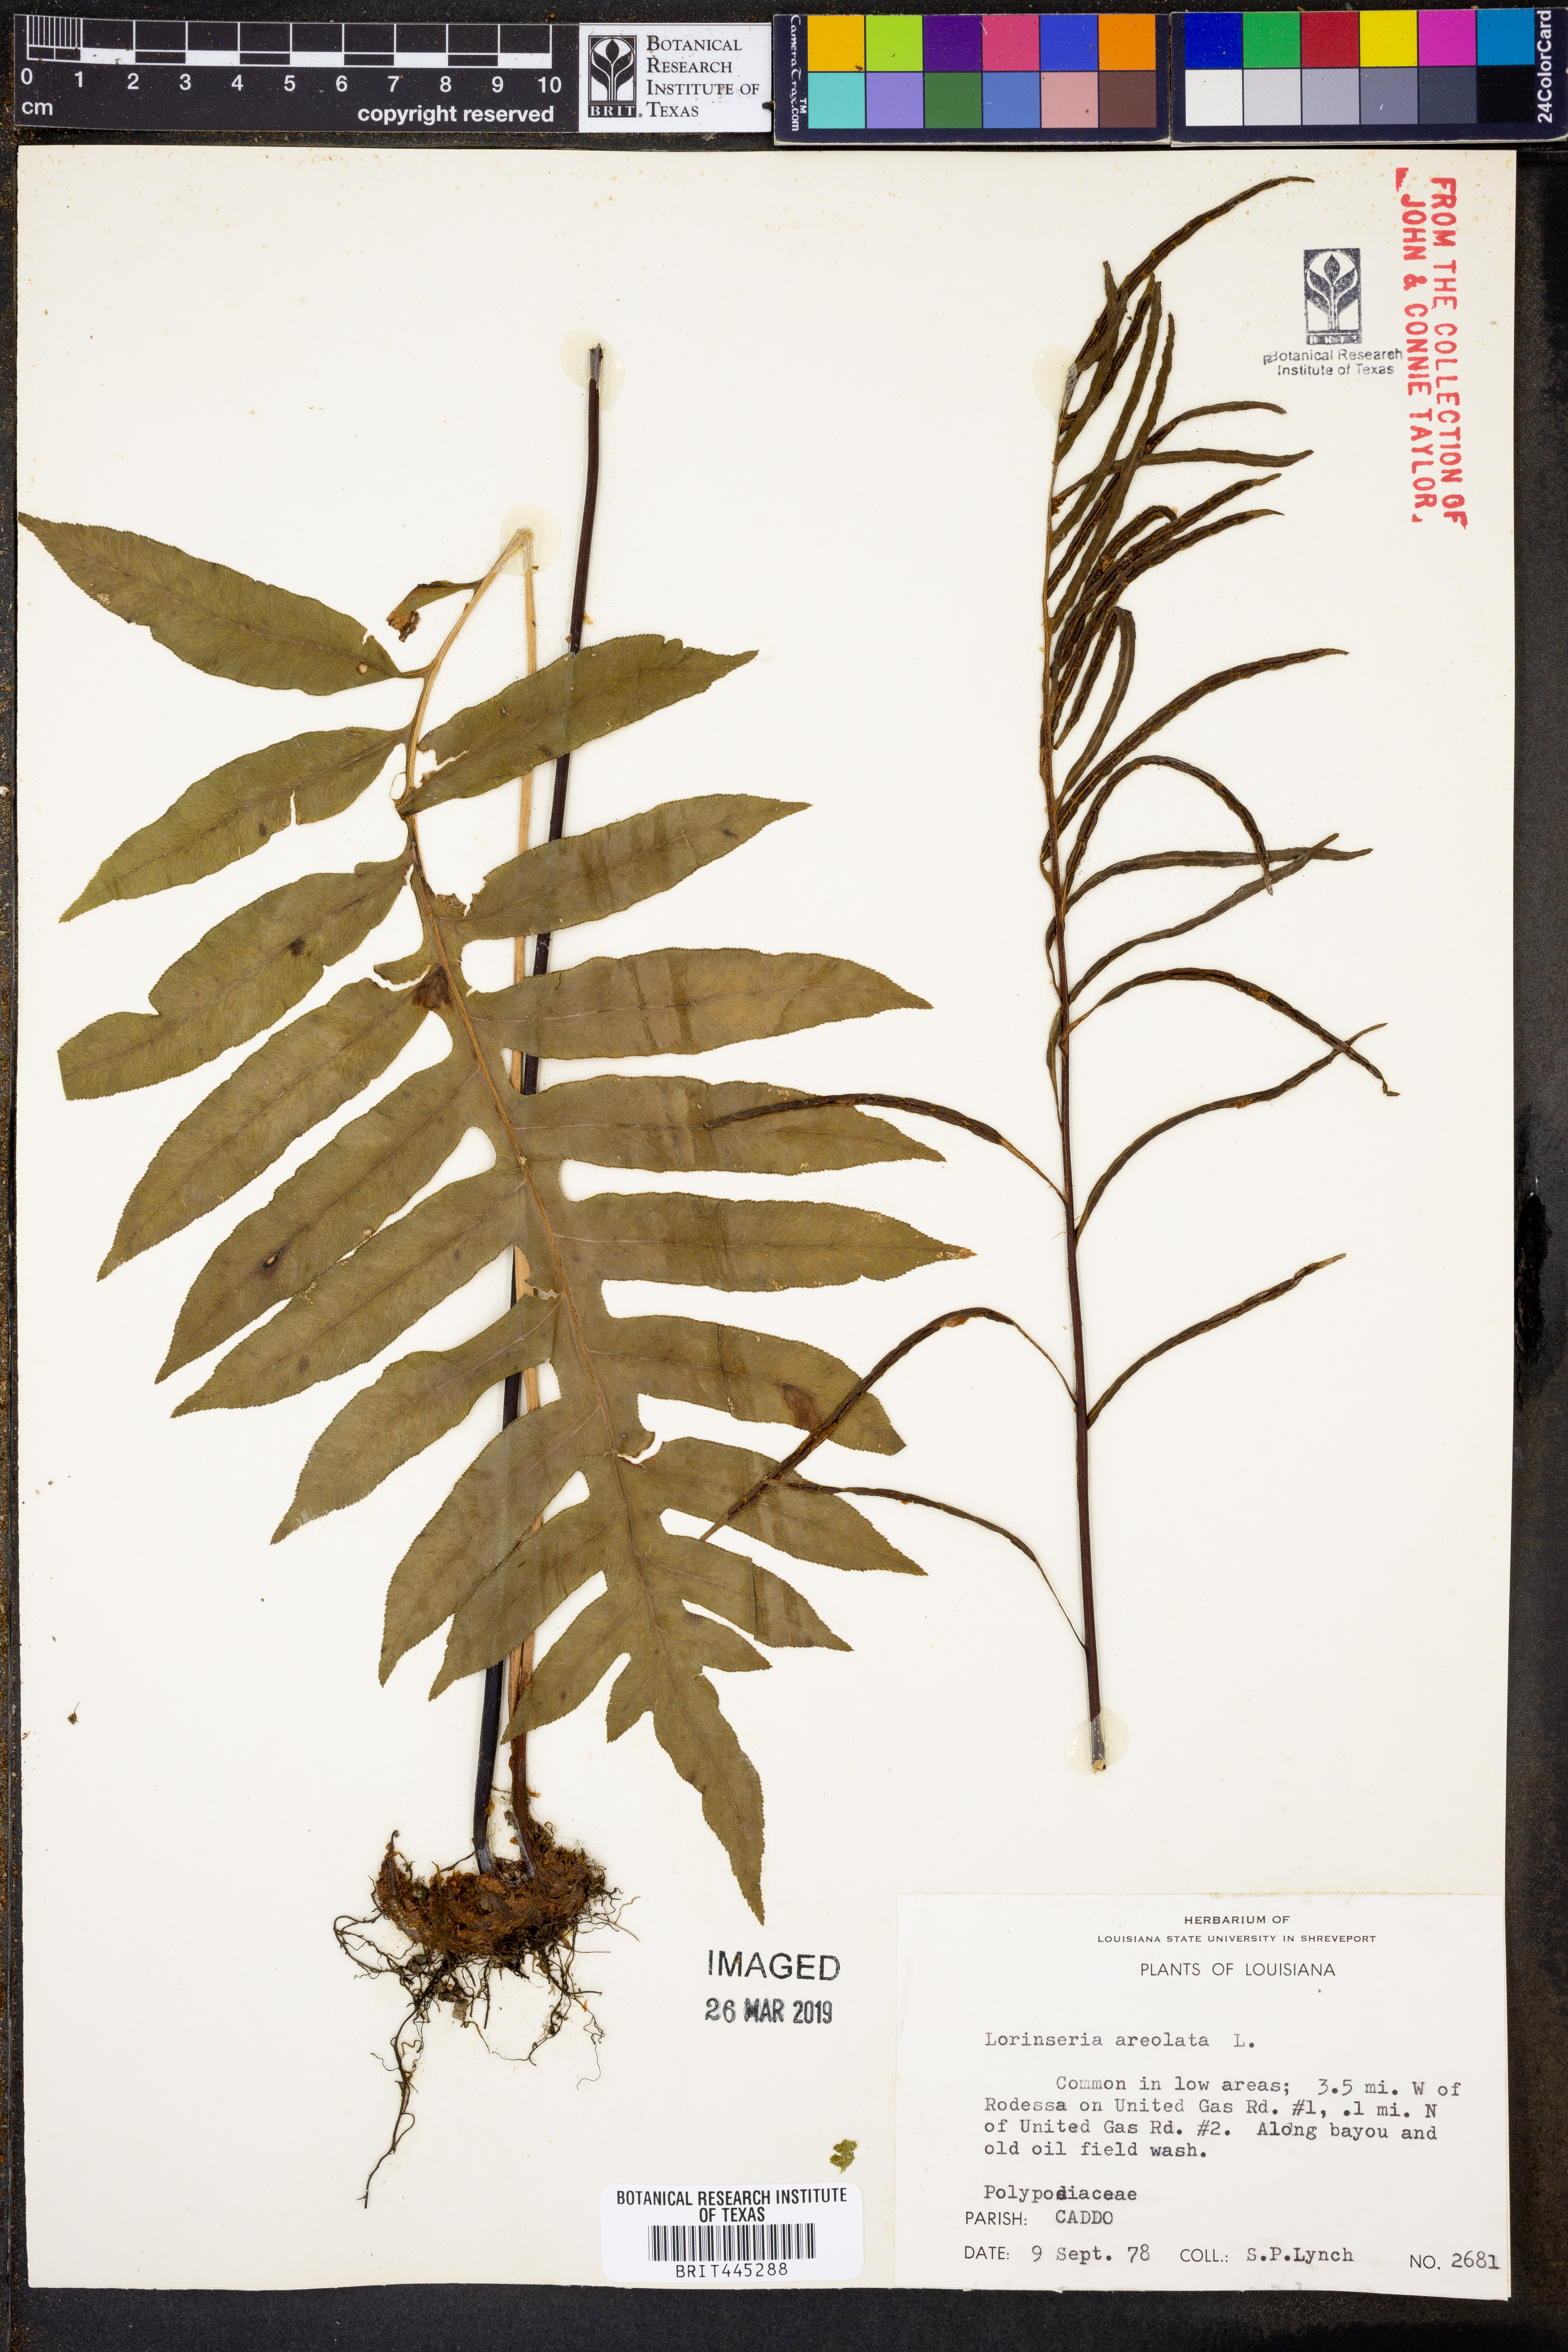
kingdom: Plantae
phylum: Tracheophyta
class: Polypodiopsida
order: Polypodiales
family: Blechnaceae
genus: Lorinseria
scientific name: Lorinseria areolata
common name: Dwarf chain fern
